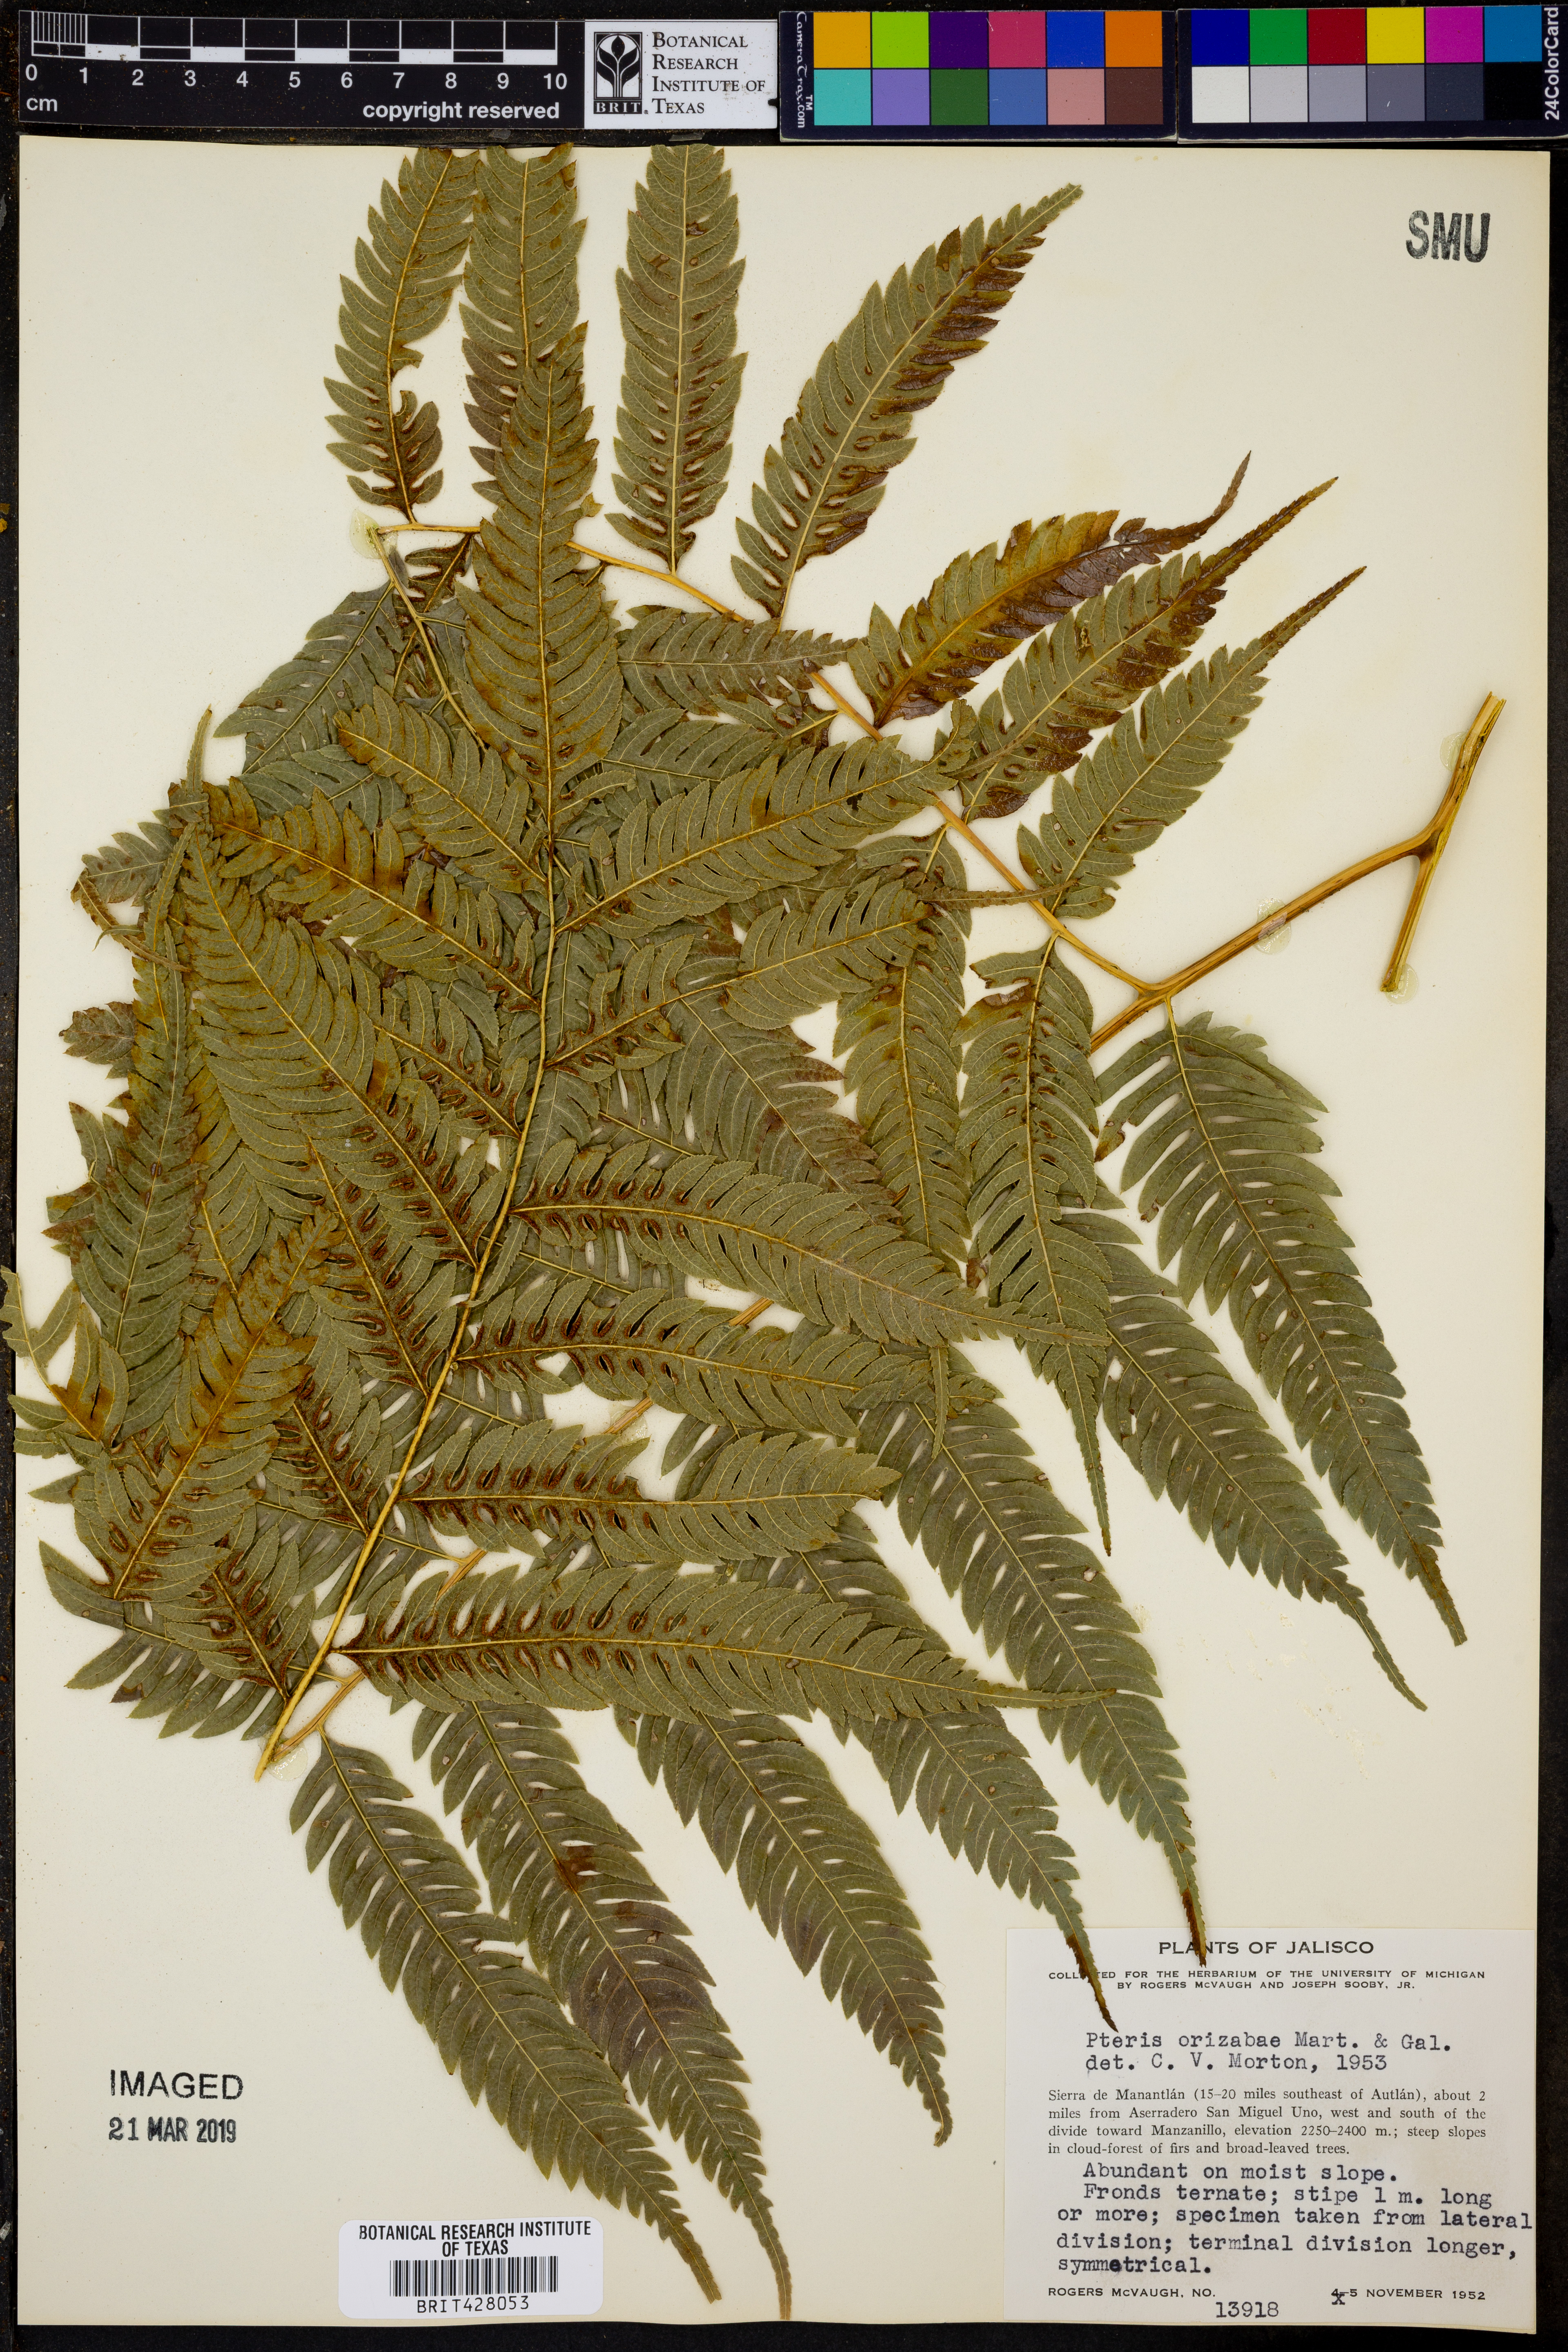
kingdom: Plantae
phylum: Tracheophyta
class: Polypodiopsida
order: Polypodiales
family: Pteridaceae
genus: Pteris
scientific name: Pteris orizabae
